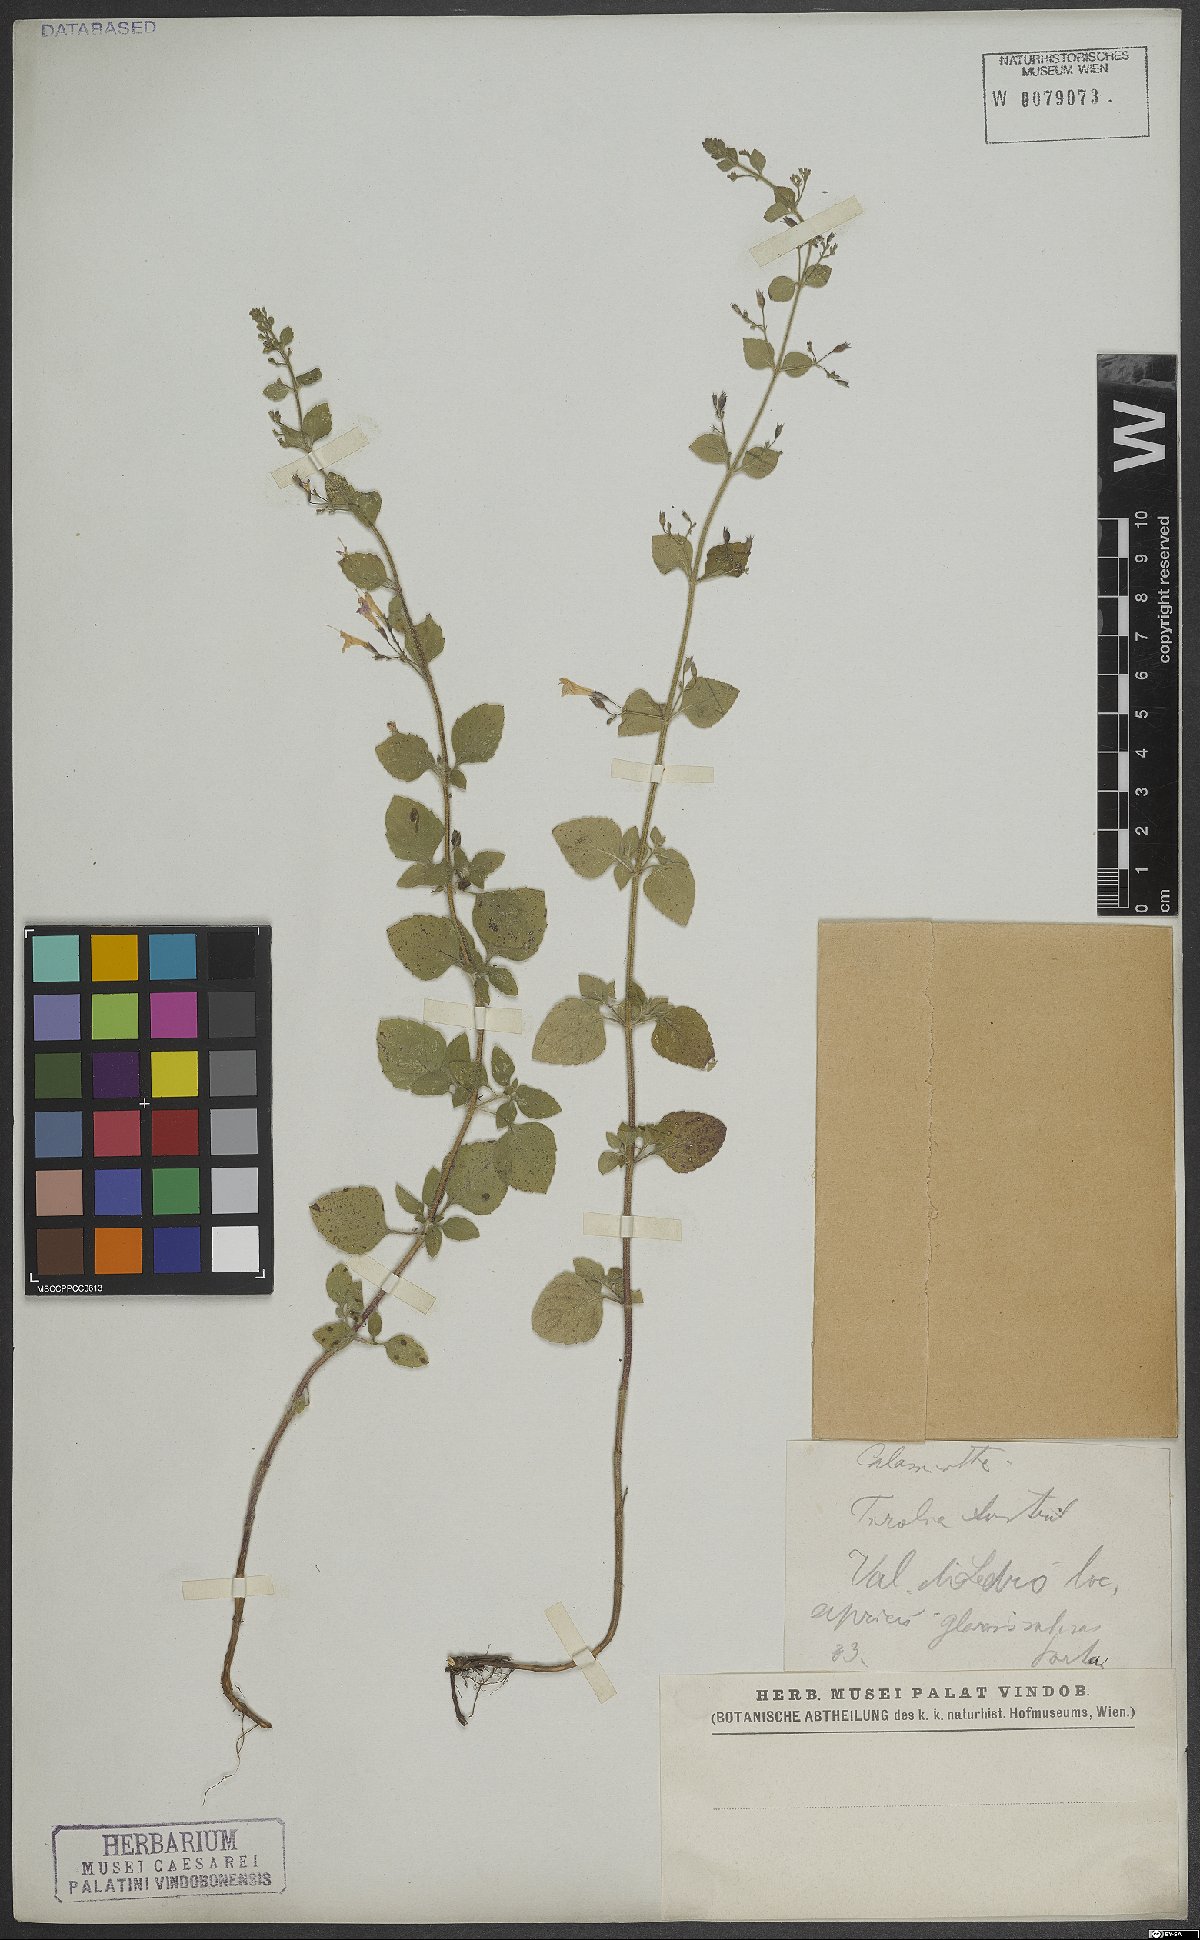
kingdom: Plantae
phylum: Tracheophyta
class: Magnoliopsida
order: Lamiales
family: Lamiaceae
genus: Calamintha
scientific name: Calamintha
